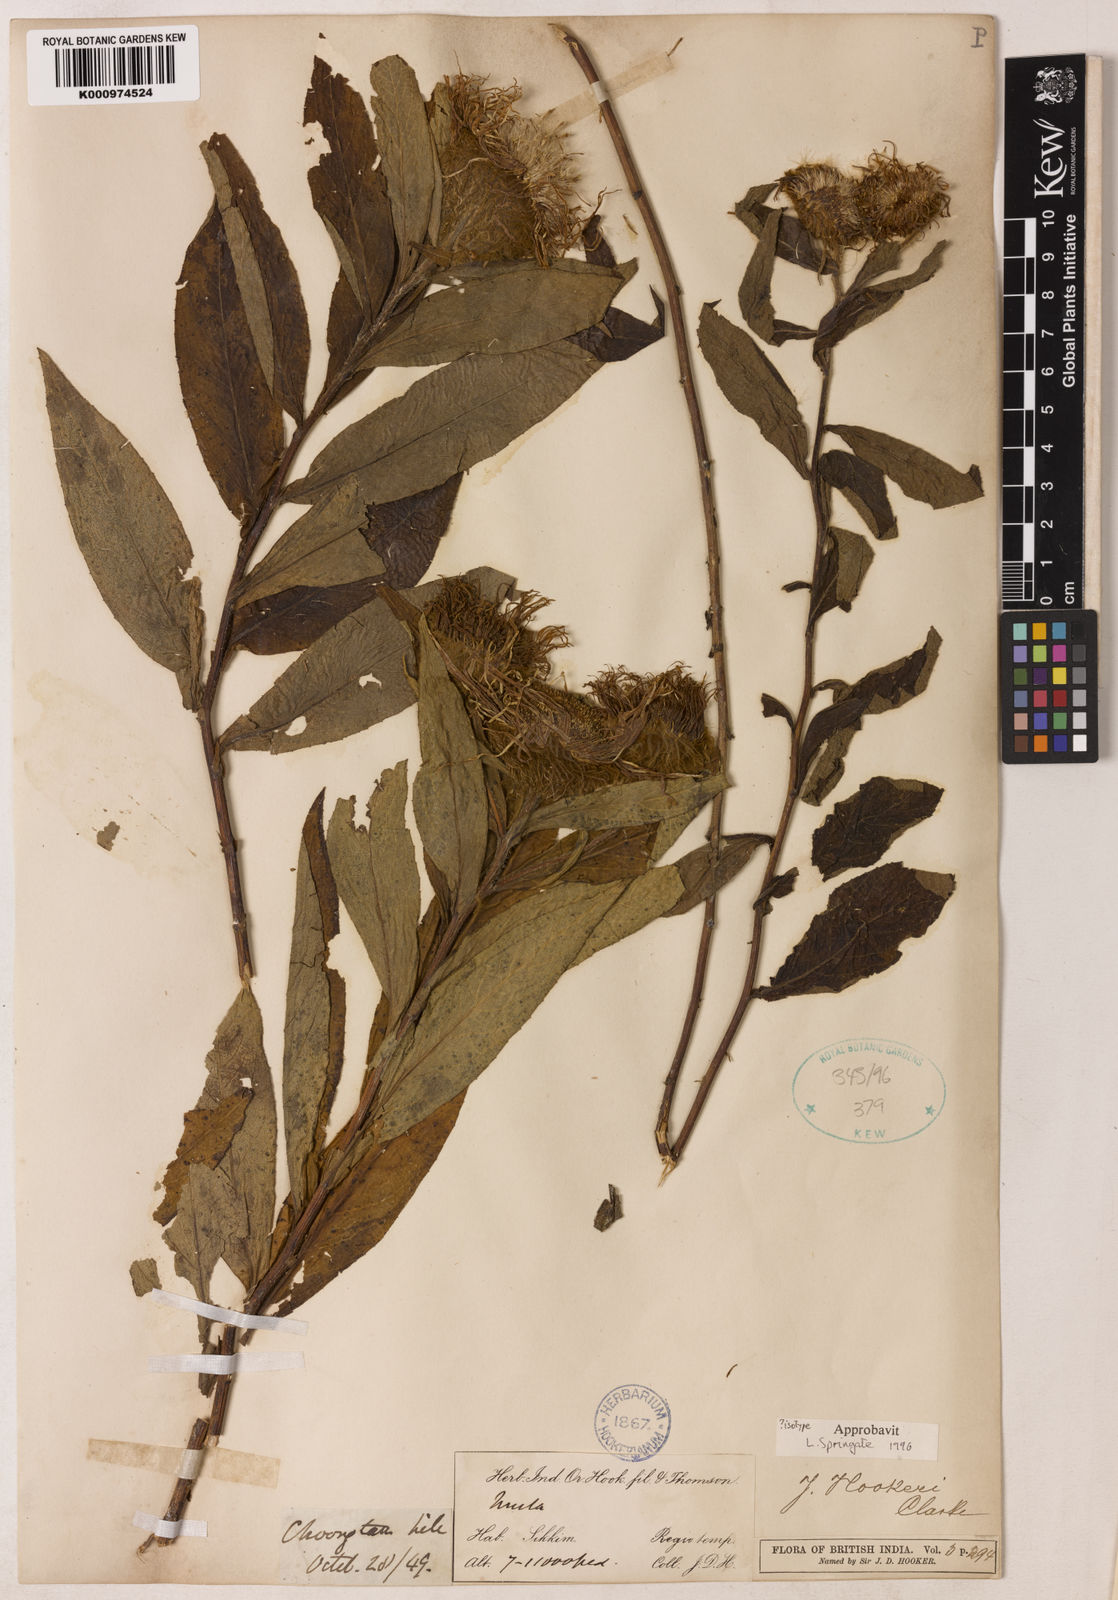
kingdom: Plantae
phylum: Tracheophyta
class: Magnoliopsida
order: Asterales
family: Asteraceae
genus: Inula
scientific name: Inula hookeri
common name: Hooker's-fleabane
